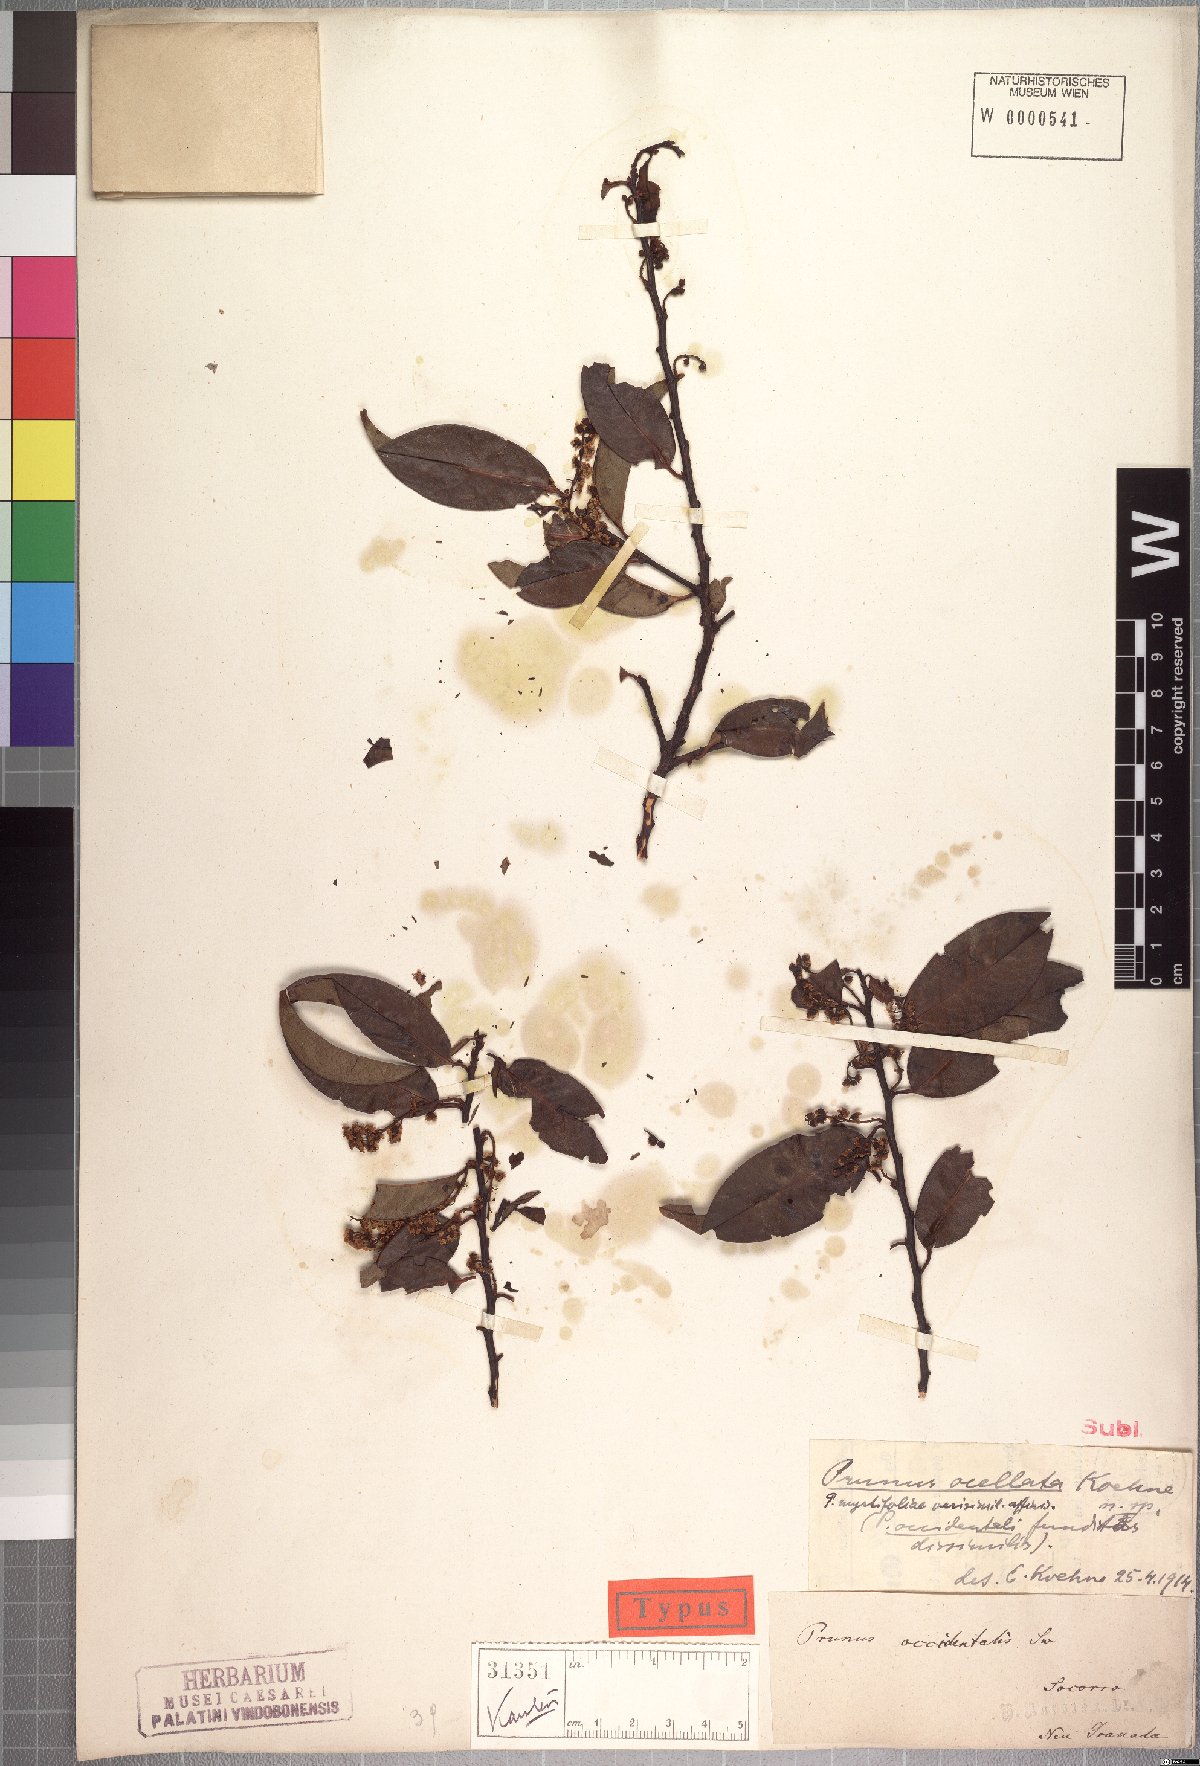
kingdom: Plantae
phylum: Tracheophyta
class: Magnoliopsida
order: Rosales
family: Rosaceae
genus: Prunus
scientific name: Prunus ocellata
